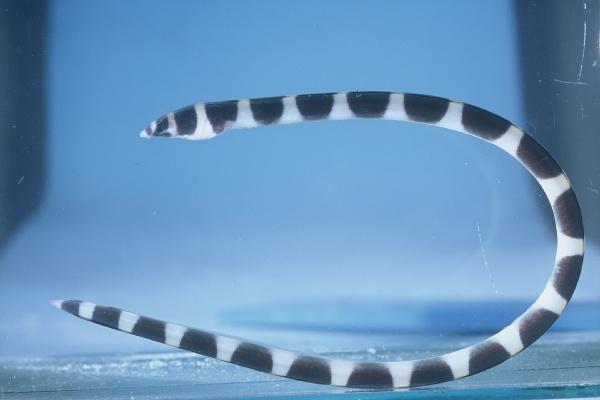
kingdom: Animalia
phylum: Chordata
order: Anguilliformes
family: Ophichthidae
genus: Leiuranus
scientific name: Leiuranus semicinctus
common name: Saddled snake eel
